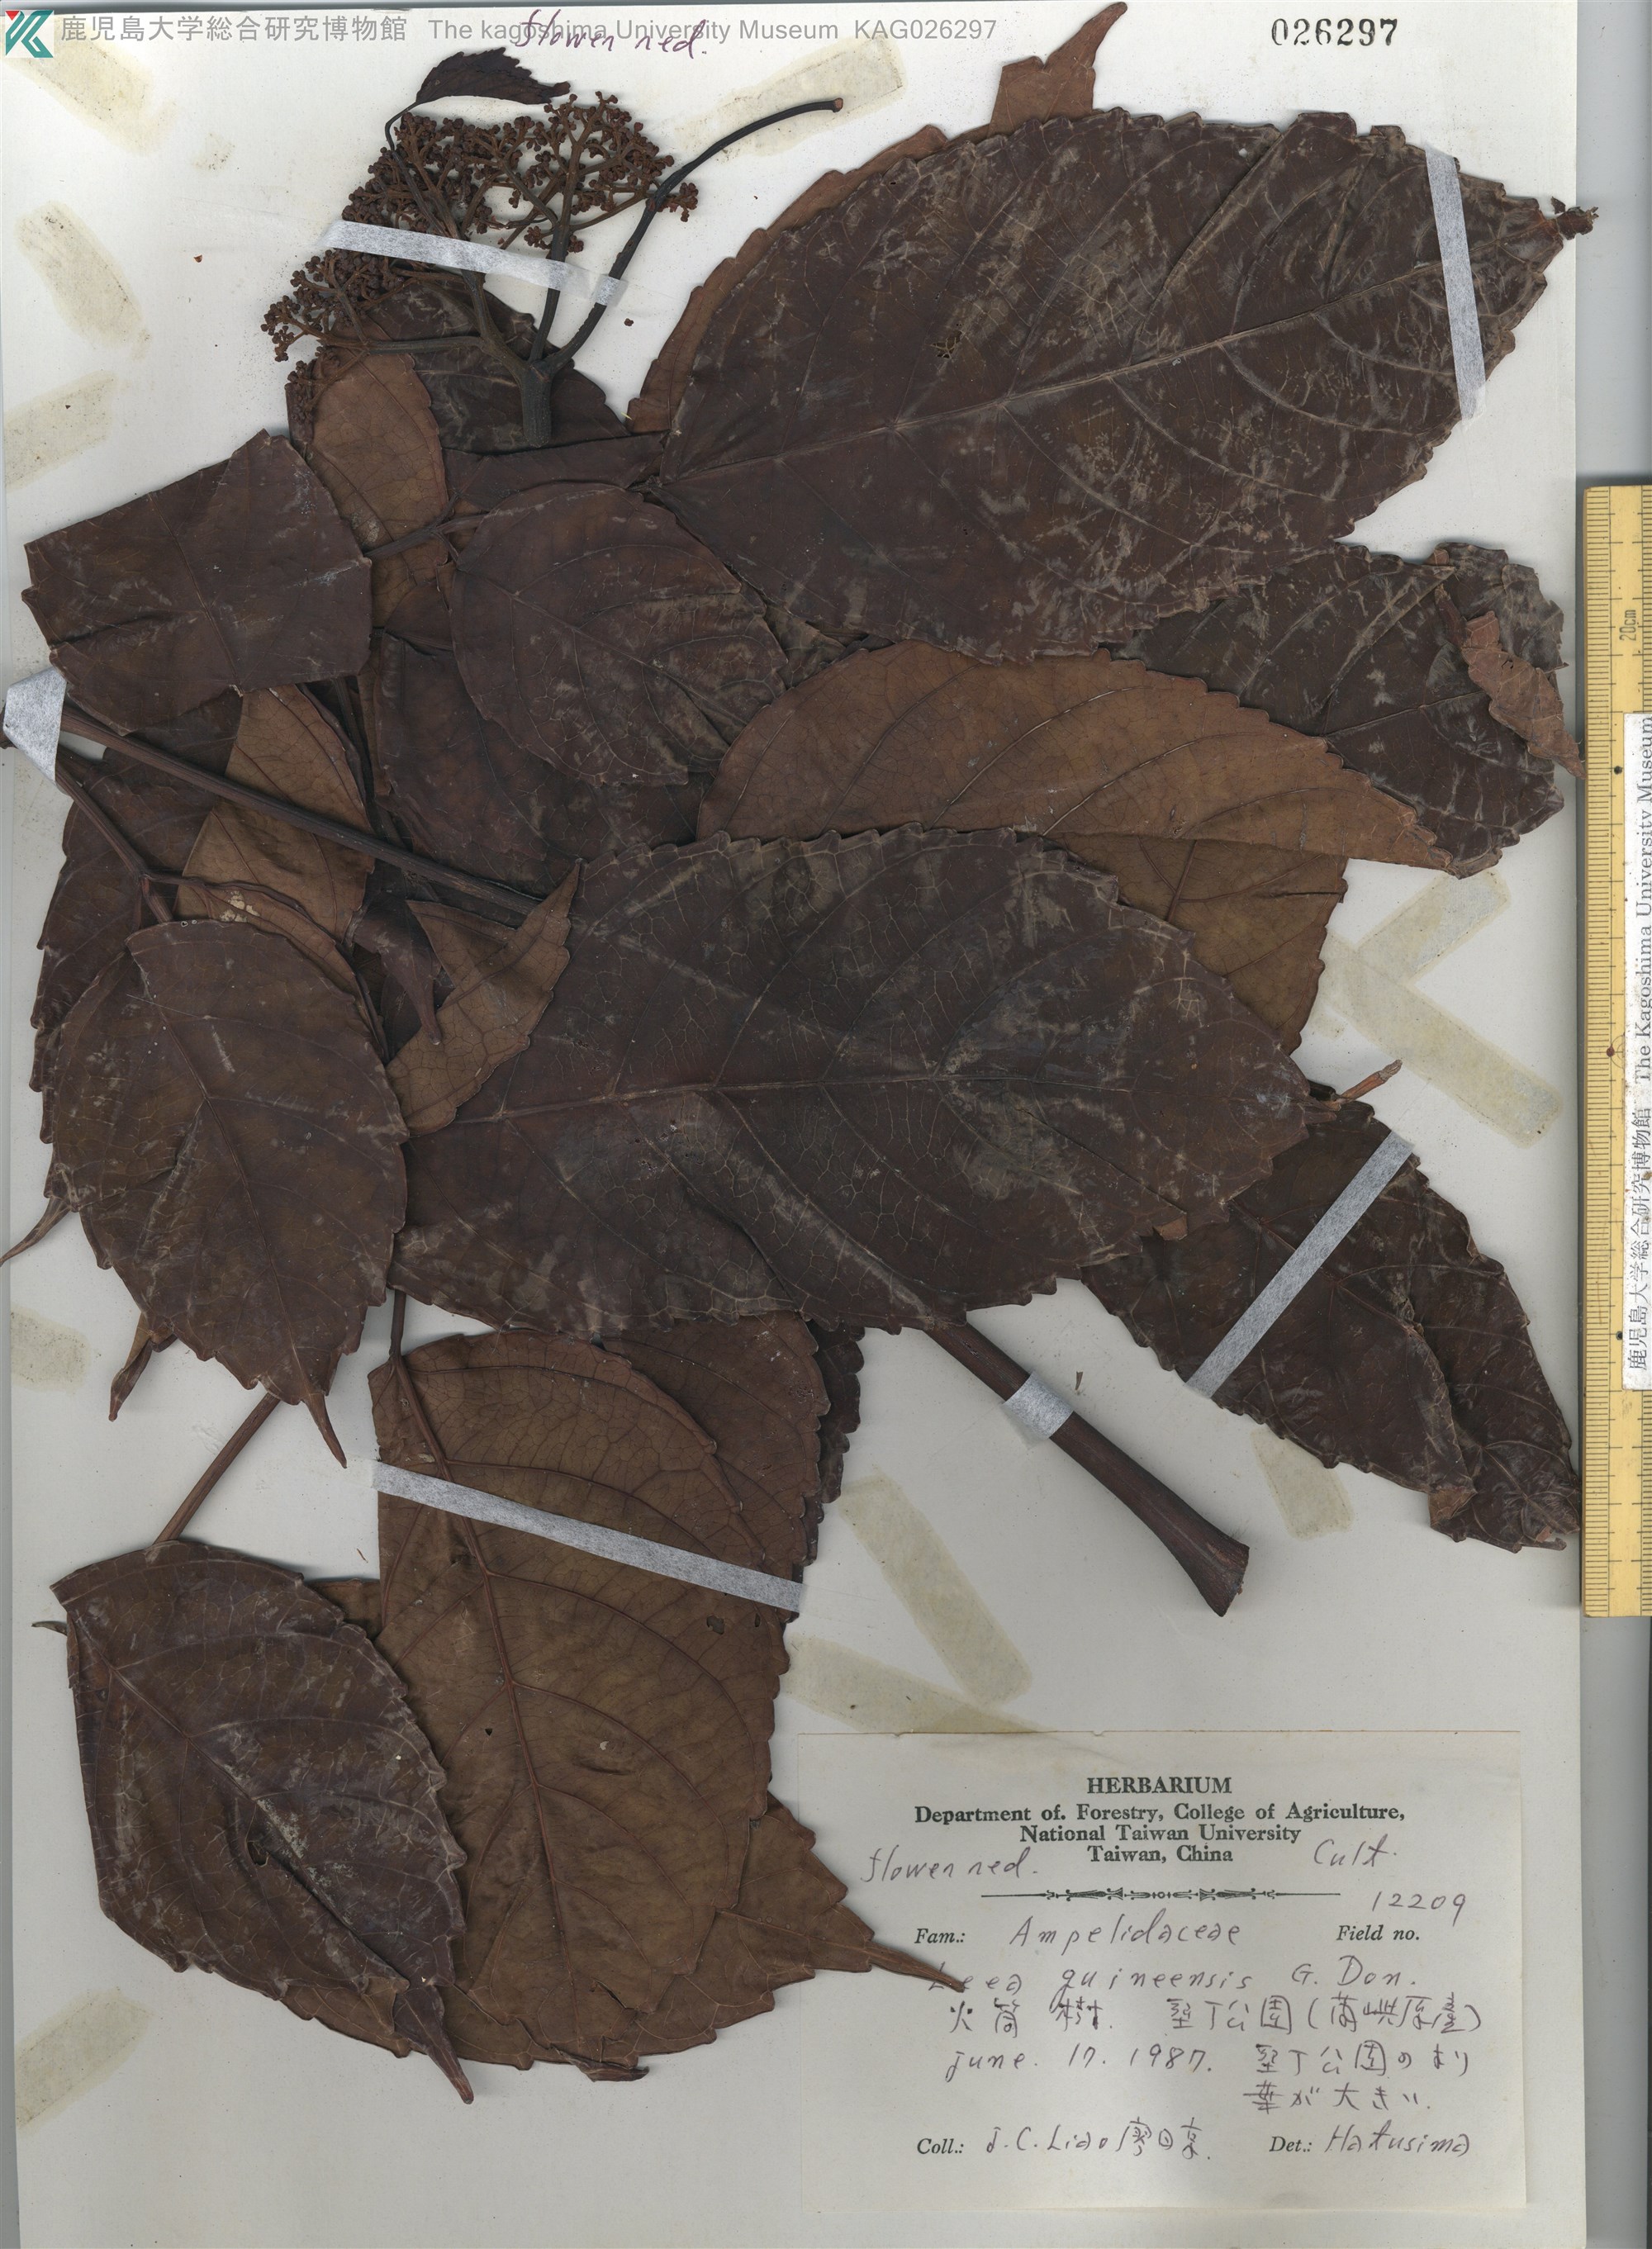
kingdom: Plantae
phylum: Tracheophyta
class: Magnoliopsida
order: Vitales
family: Vitaceae
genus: Leea
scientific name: Leea guineensis
